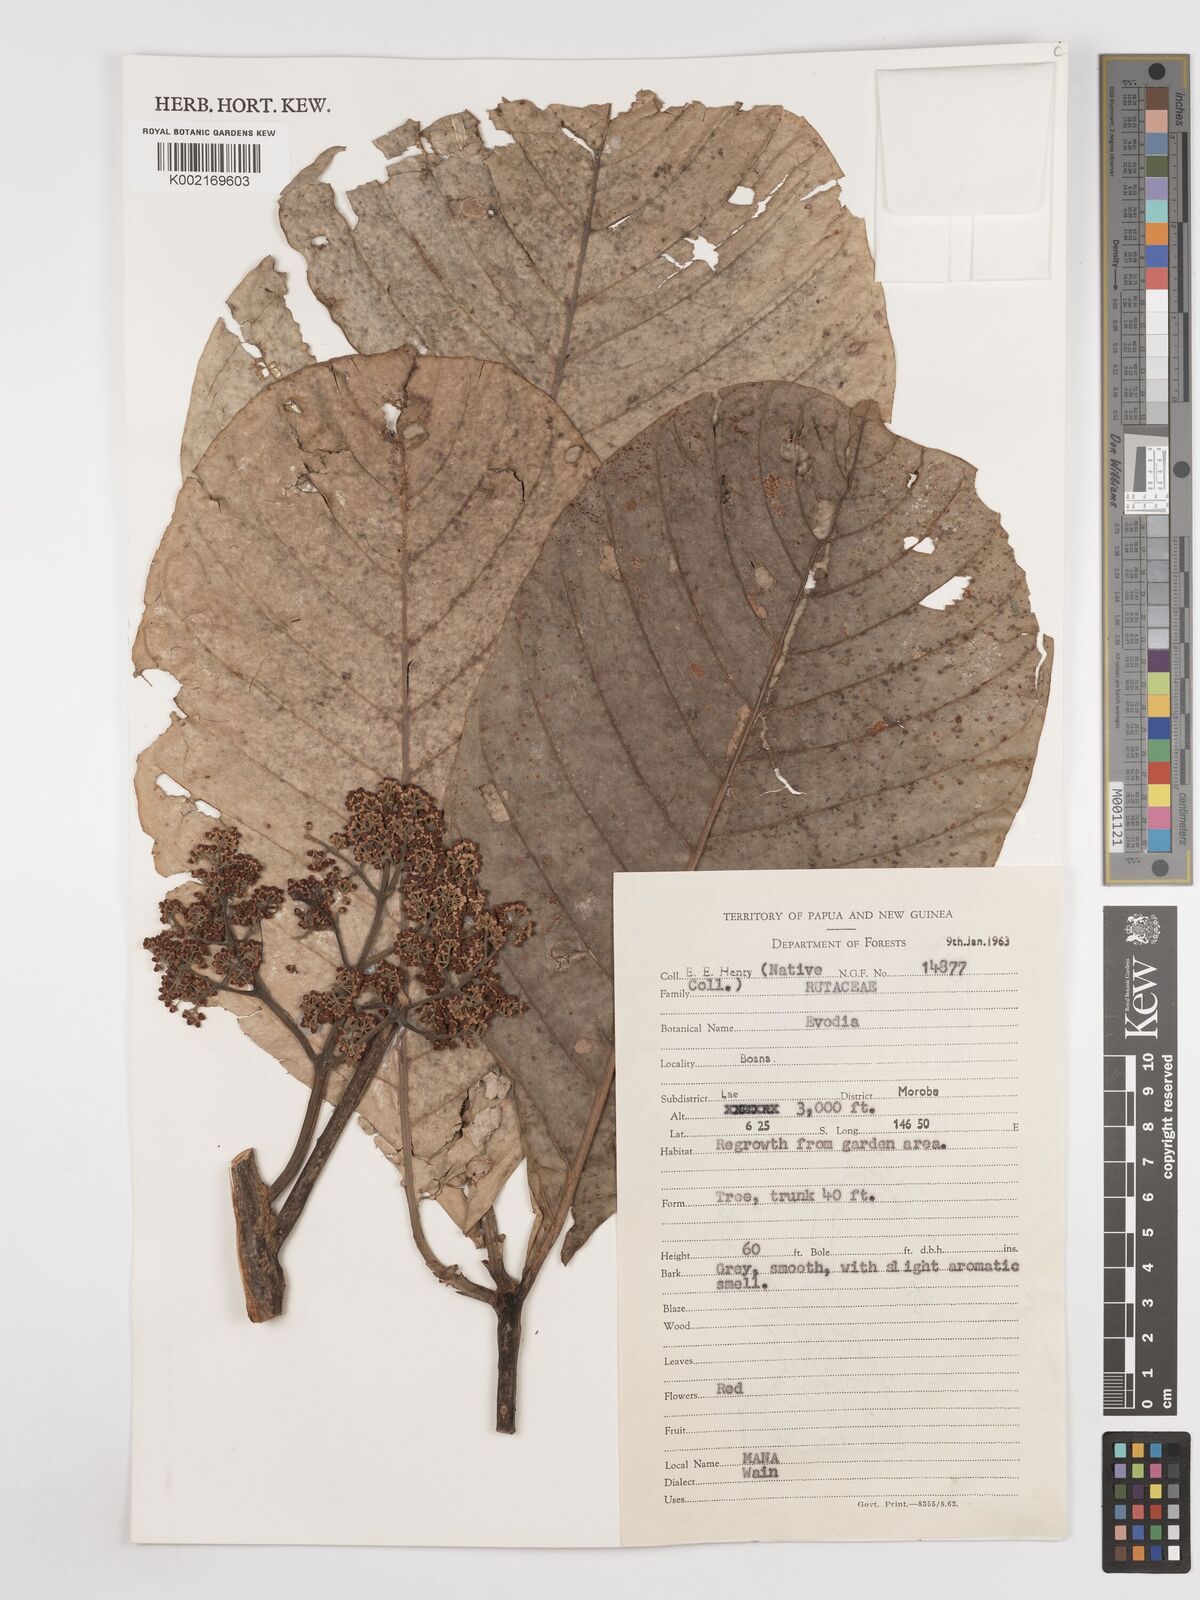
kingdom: Plantae
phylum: Tracheophyta
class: Magnoliopsida
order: Sapindales
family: Rutaceae
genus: Euodia
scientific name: Euodia
